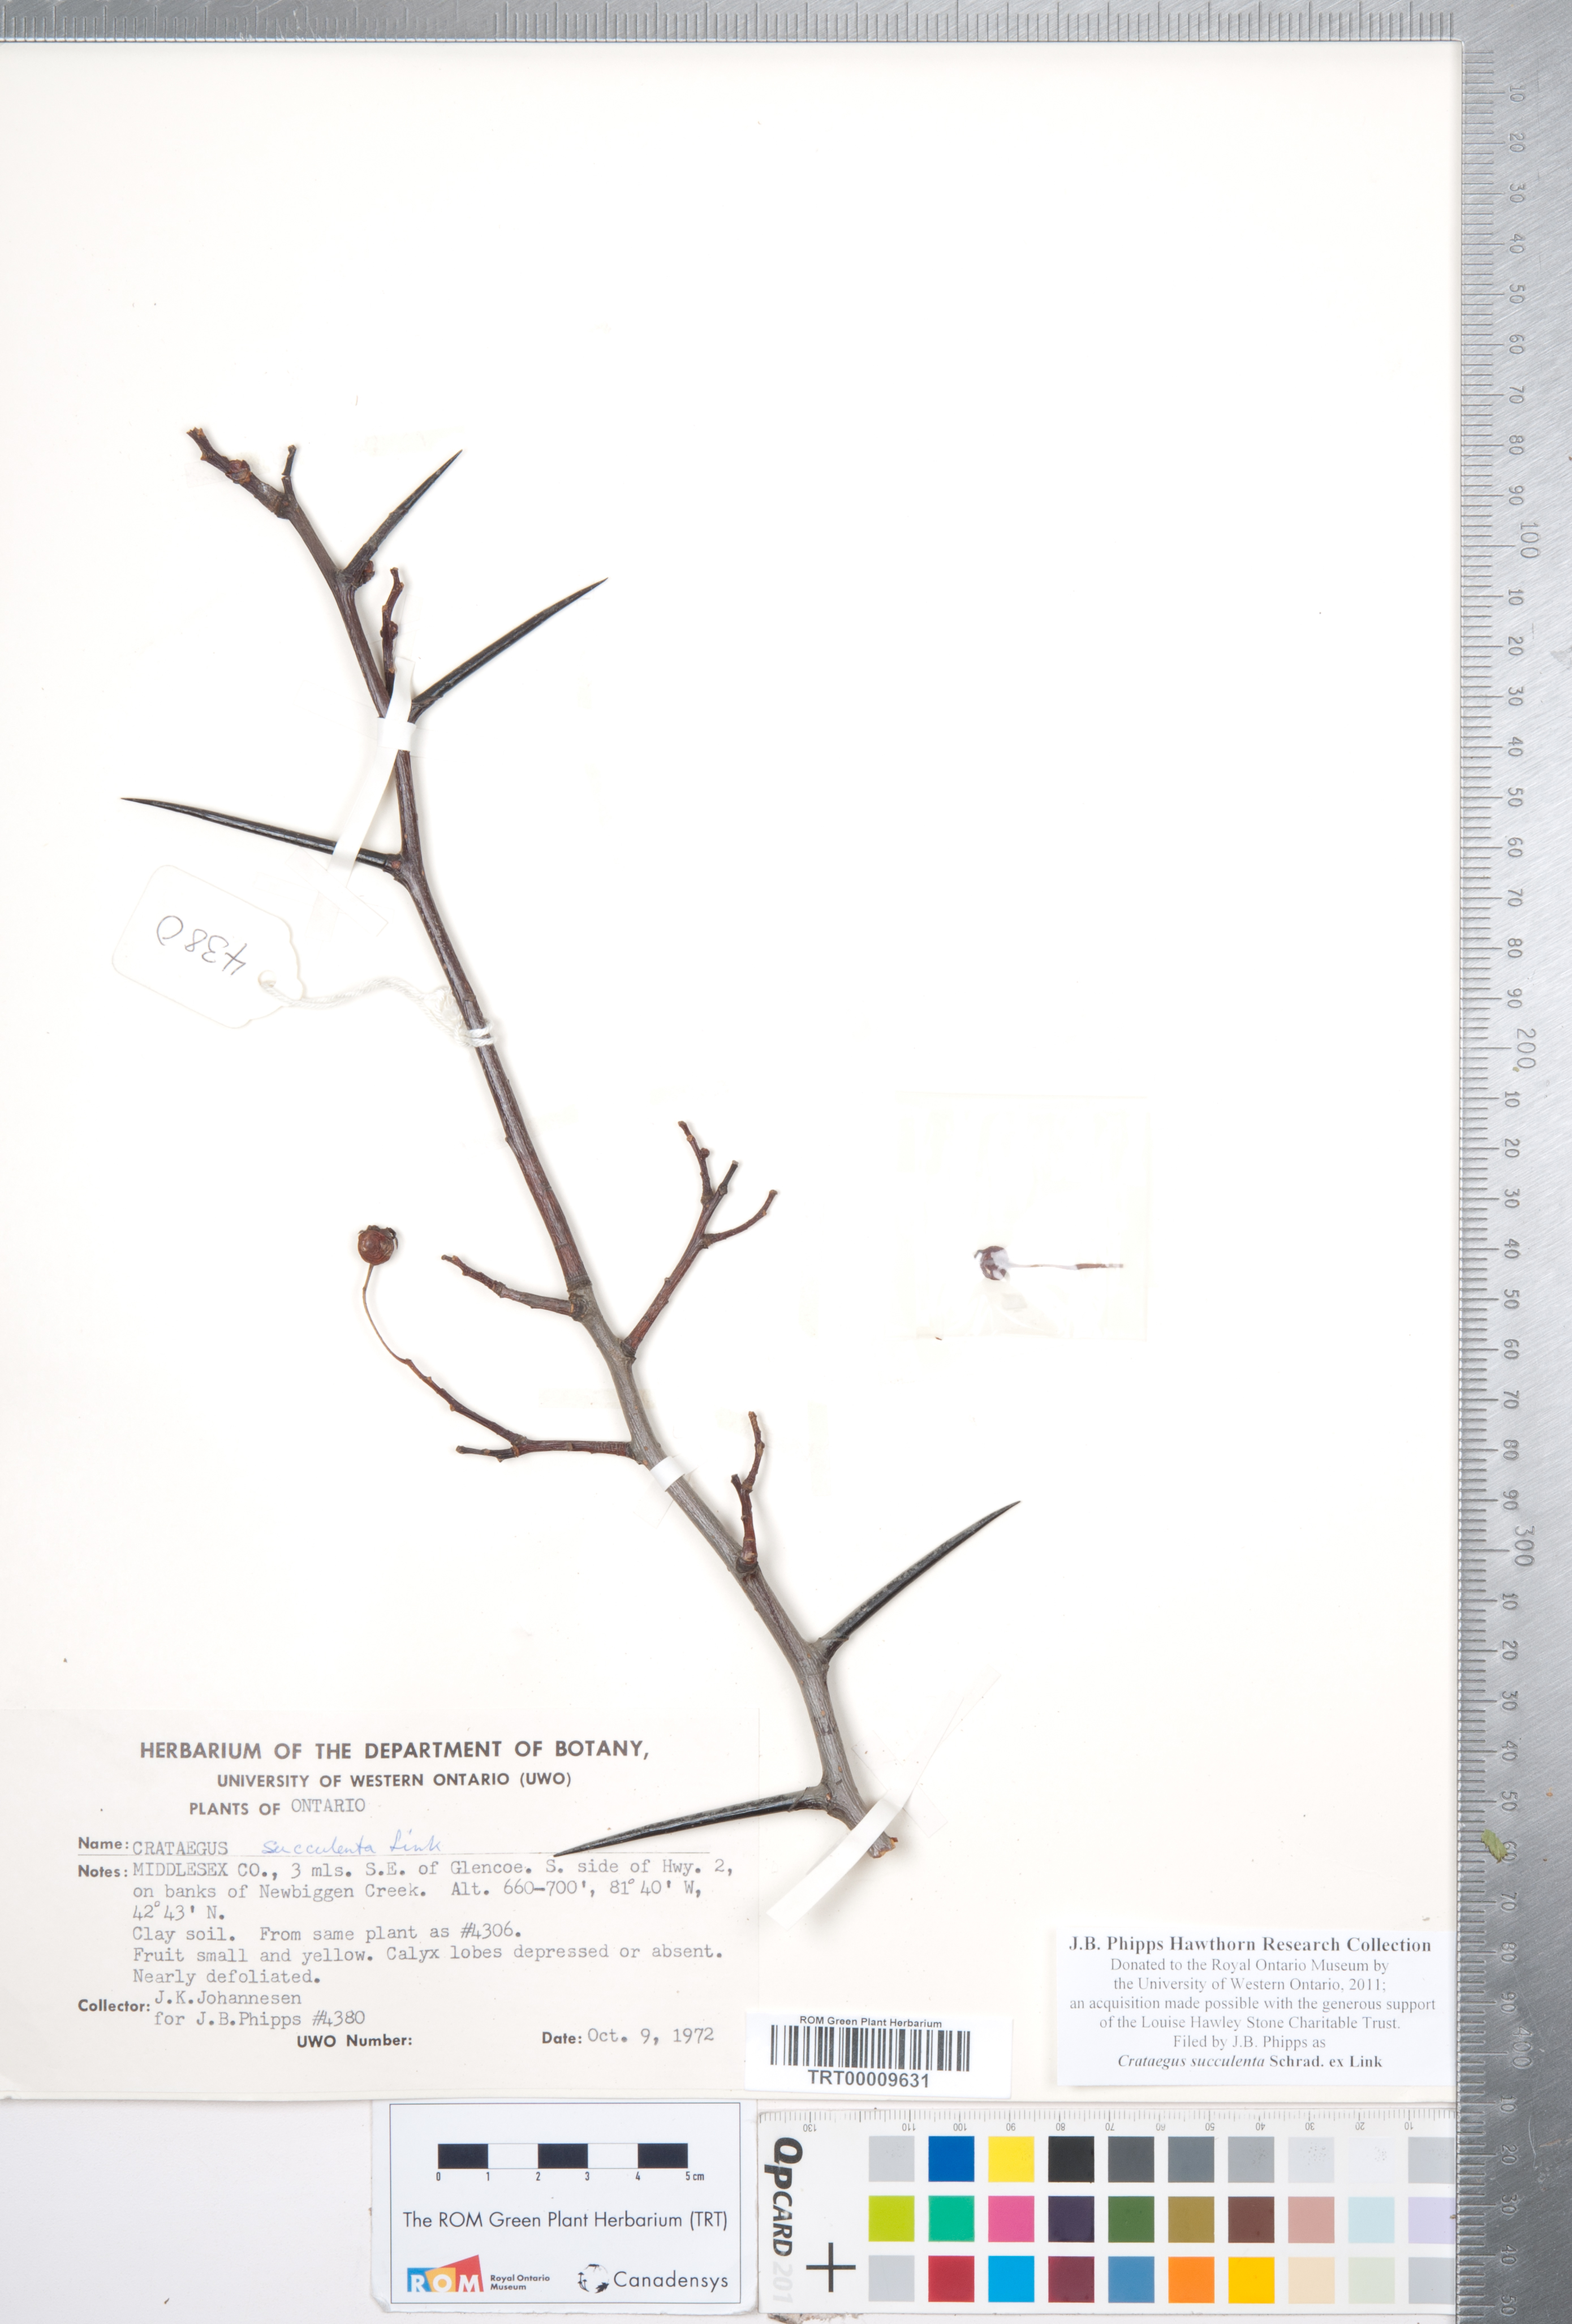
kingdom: Plantae
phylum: Tracheophyta
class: Magnoliopsida
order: Rosales
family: Rosaceae
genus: Crataegus
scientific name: Crataegus succulenta
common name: Fleshy hawthorn
